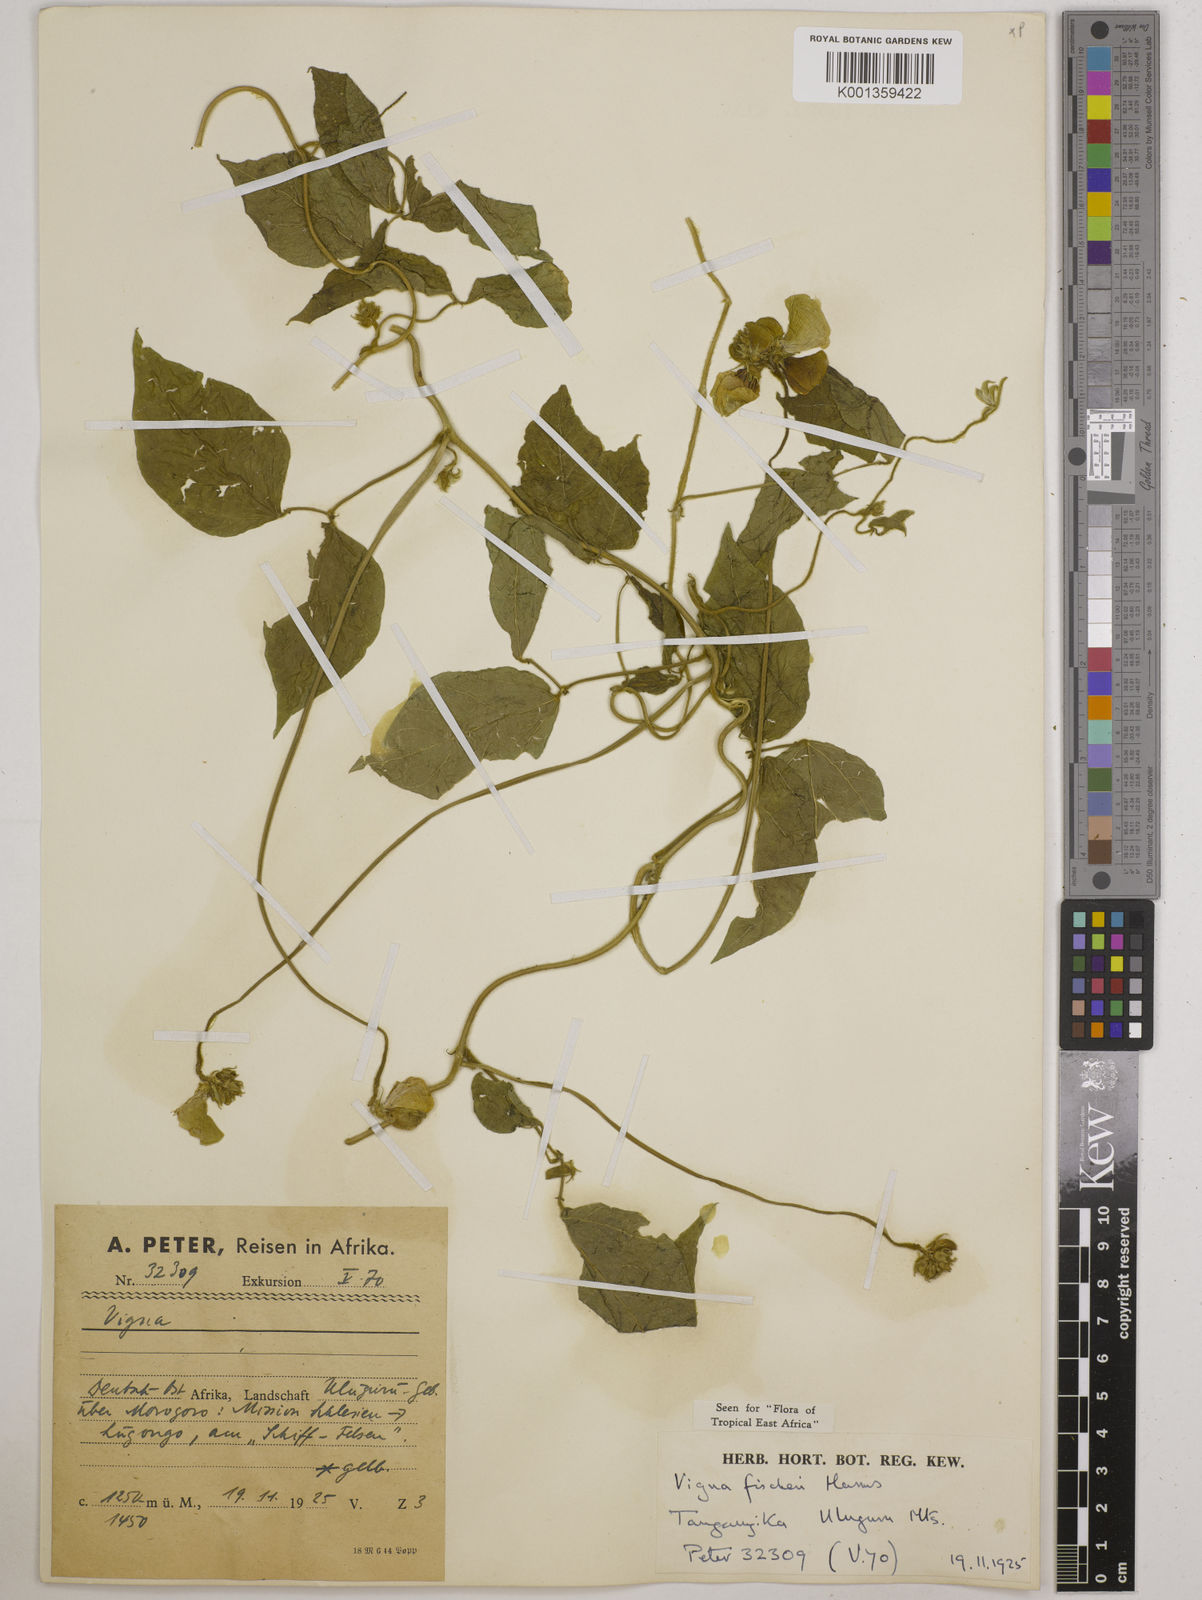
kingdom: Plantae
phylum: Tracheophyta
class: Magnoliopsida
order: Fabales
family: Fabaceae
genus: Vigna
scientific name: Vigna fischeri
